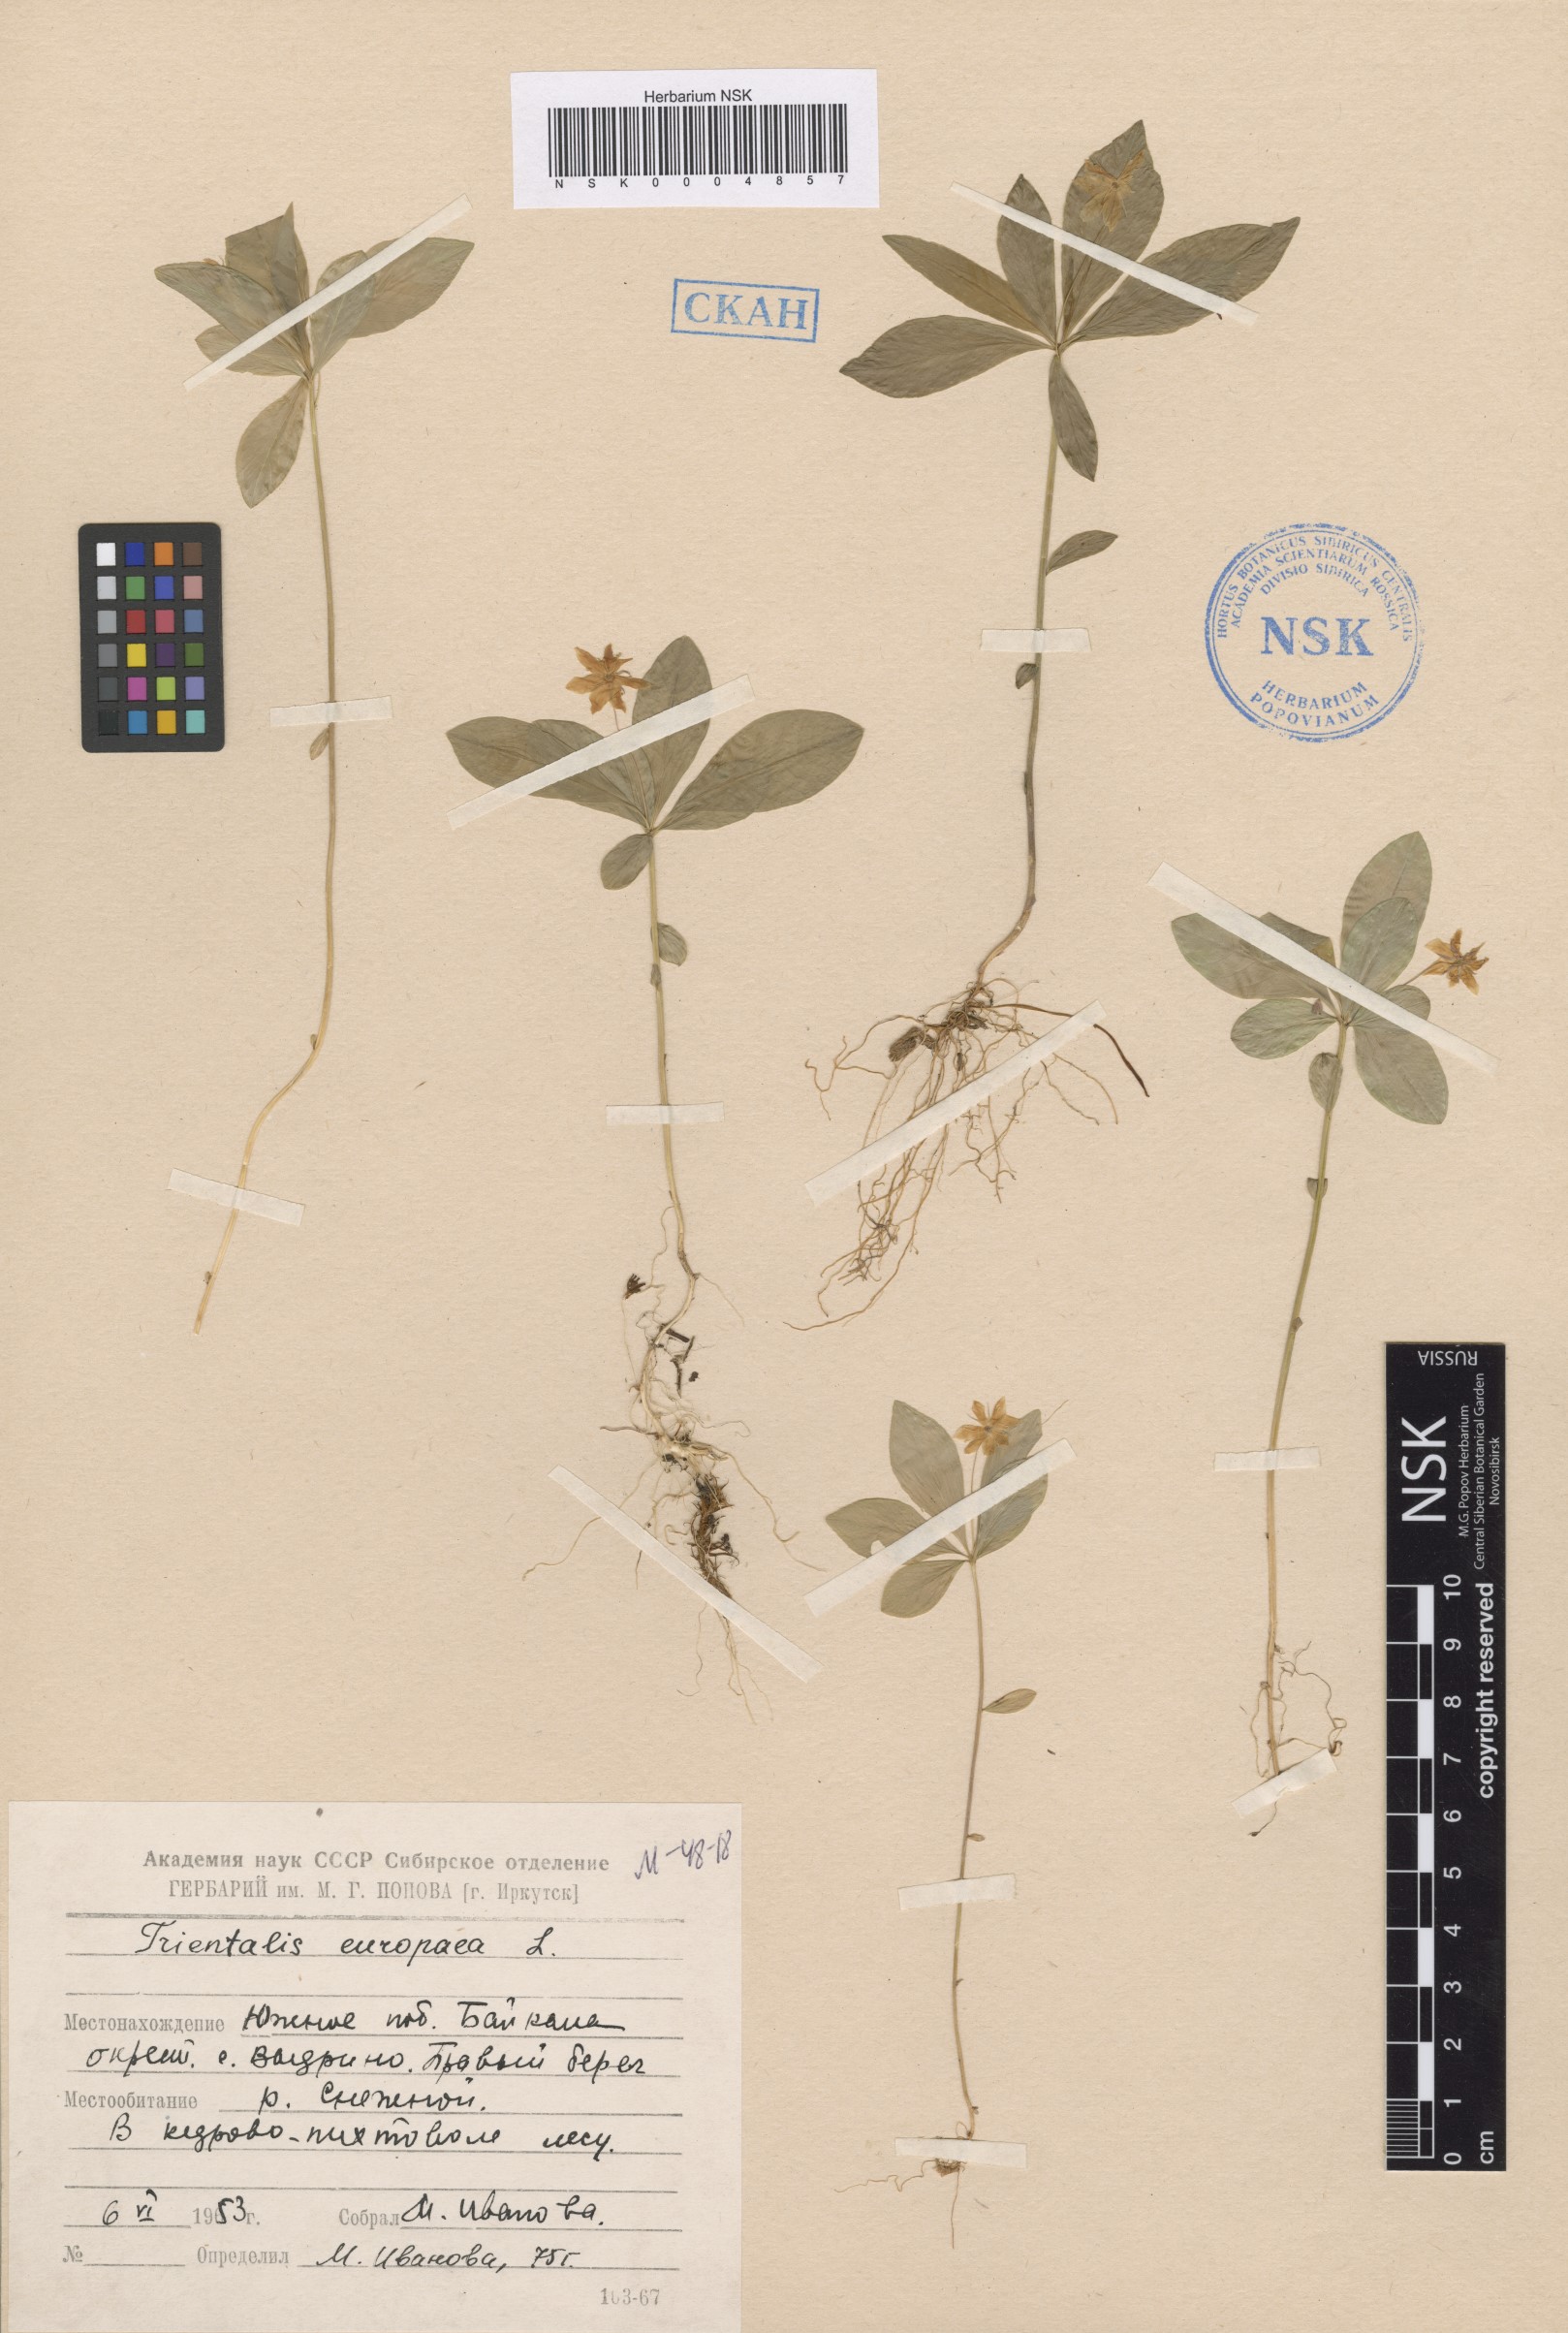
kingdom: Plantae
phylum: Tracheophyta
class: Magnoliopsida
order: Ericales
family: Primulaceae
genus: Lysimachia
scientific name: Lysimachia europaea
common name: Arctic starflower
